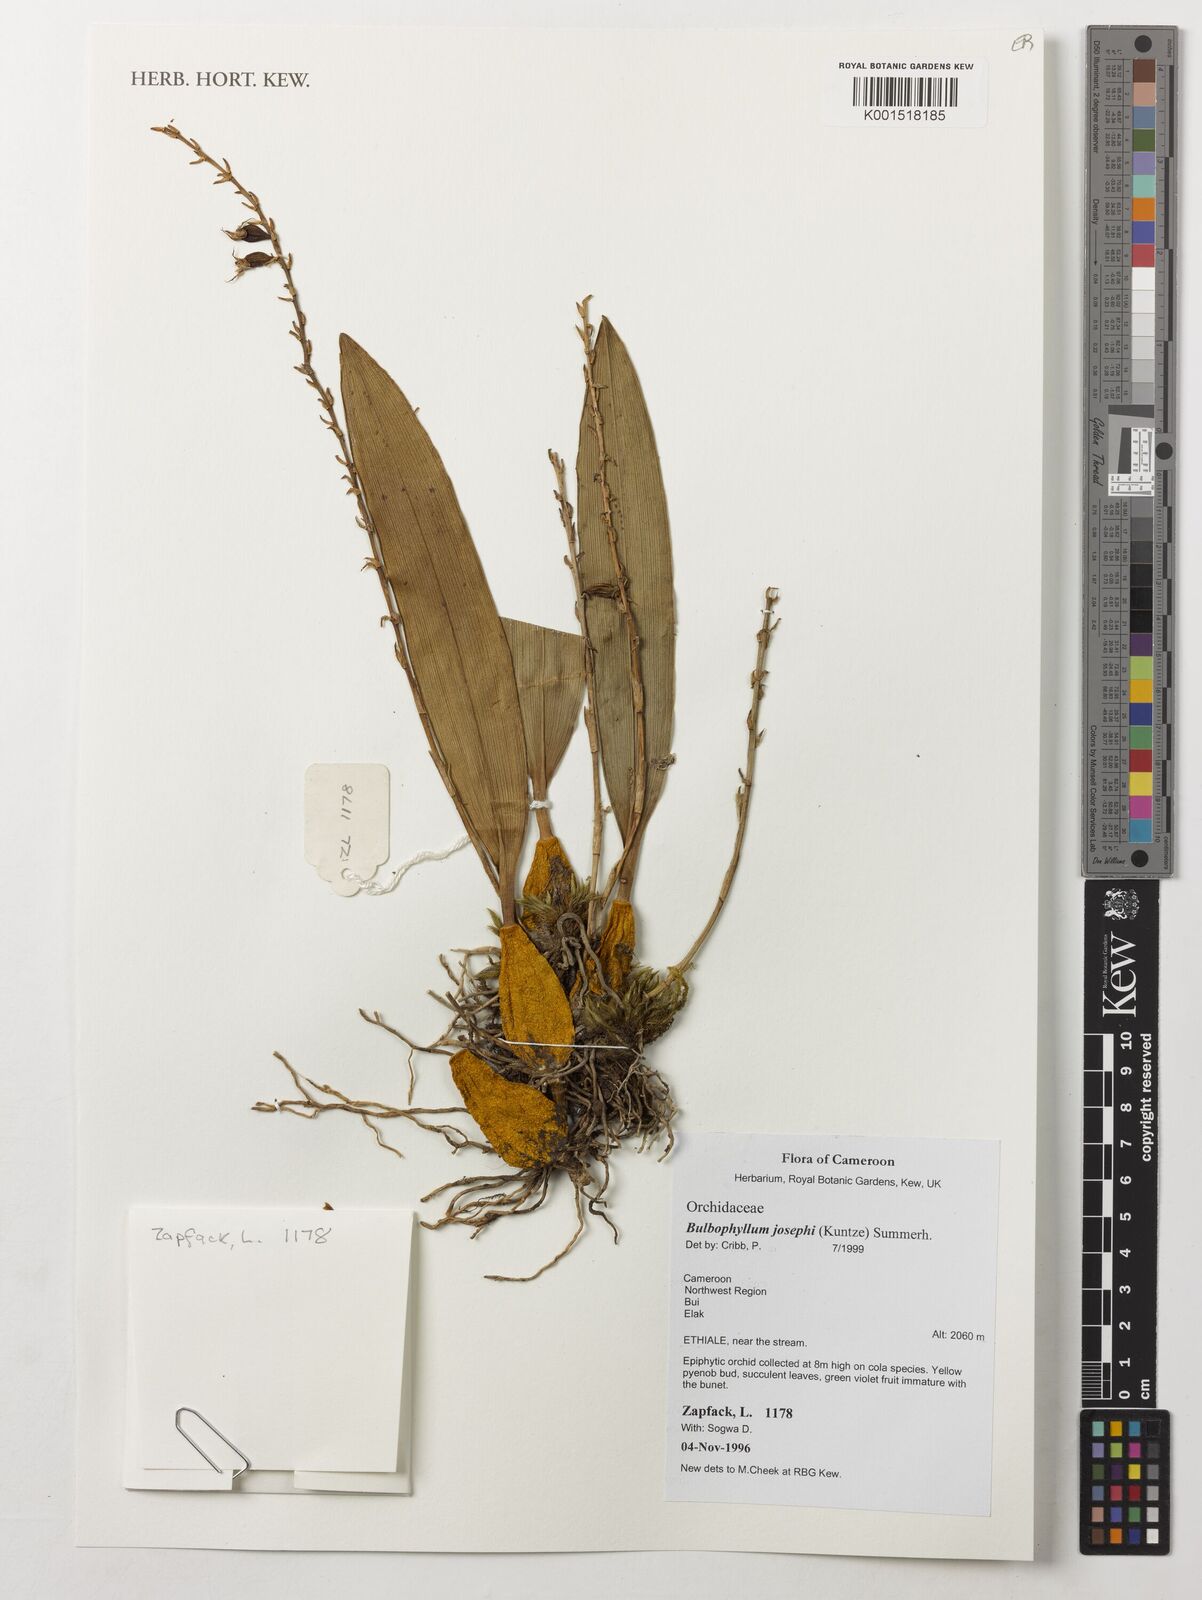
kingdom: Plantae
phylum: Tracheophyta
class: Liliopsida
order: Asparagales
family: Orchidaceae
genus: Bulbophyllum
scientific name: Bulbophyllum josephi
